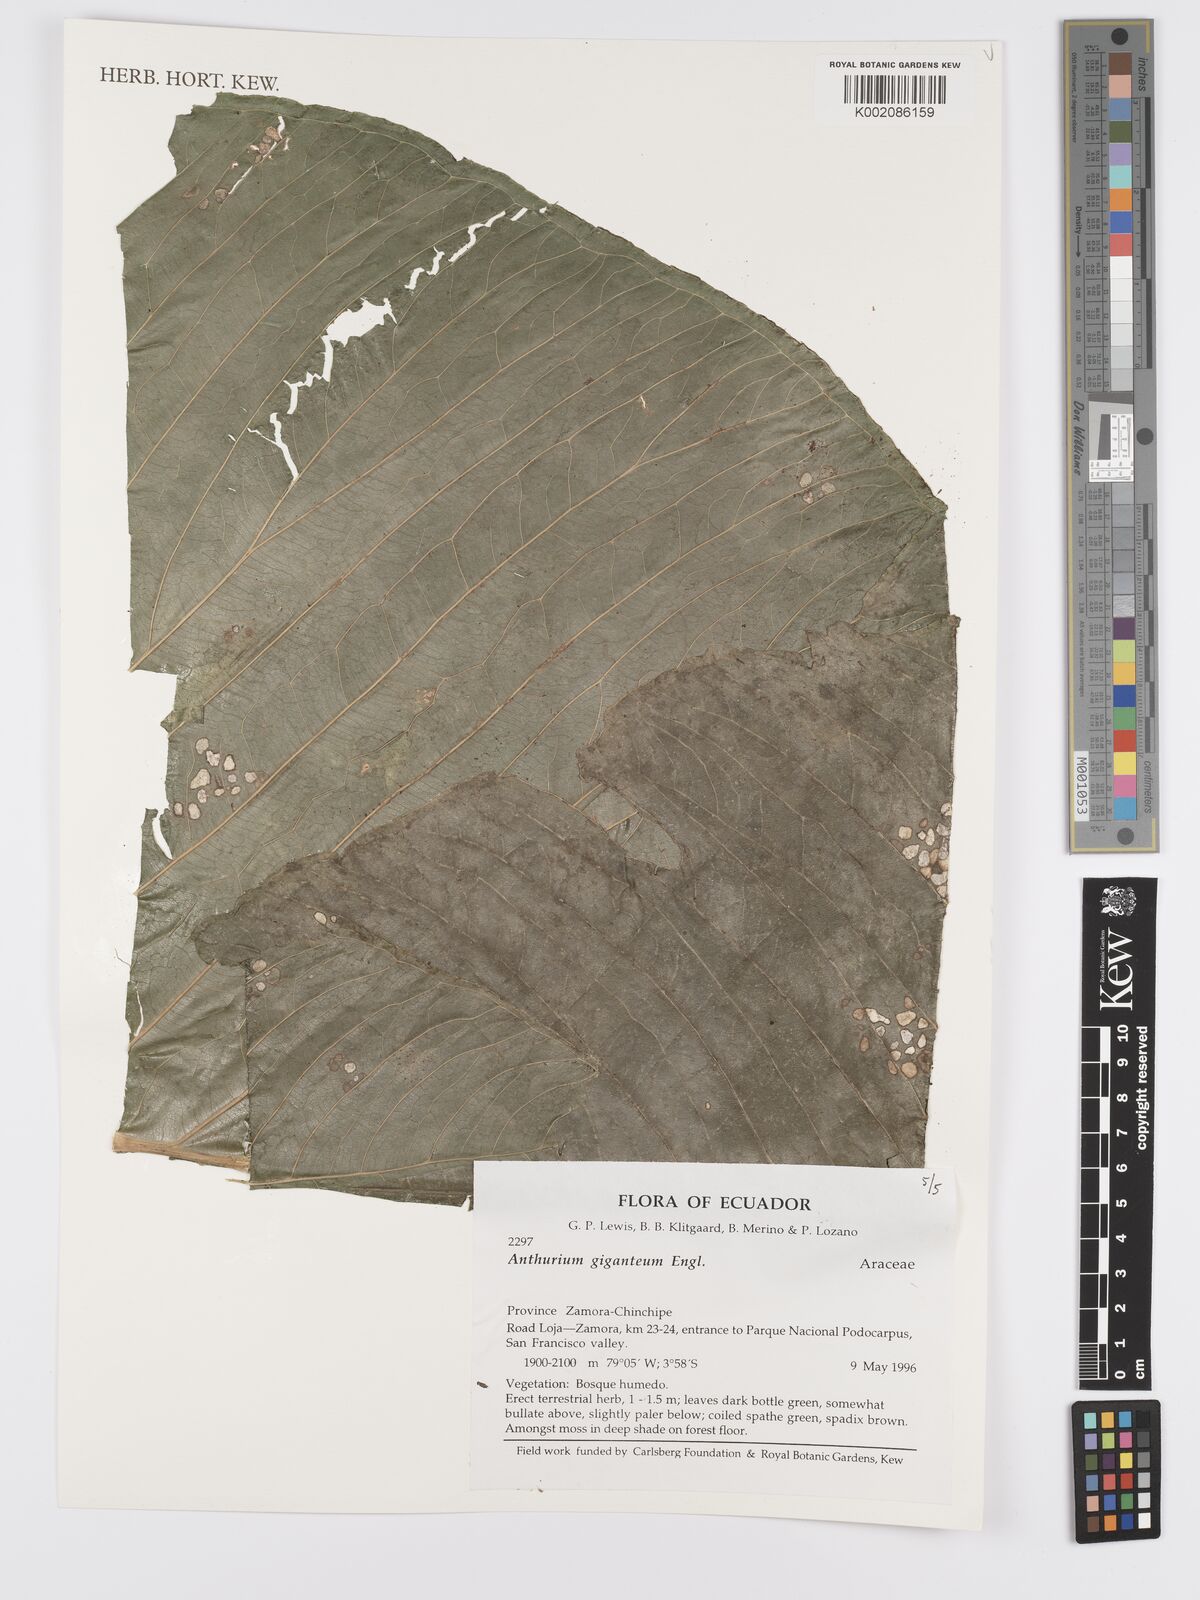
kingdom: Plantae
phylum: Tracheophyta
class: Liliopsida
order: Alismatales
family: Araceae
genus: Anthurium
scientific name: Anthurium giganteum
